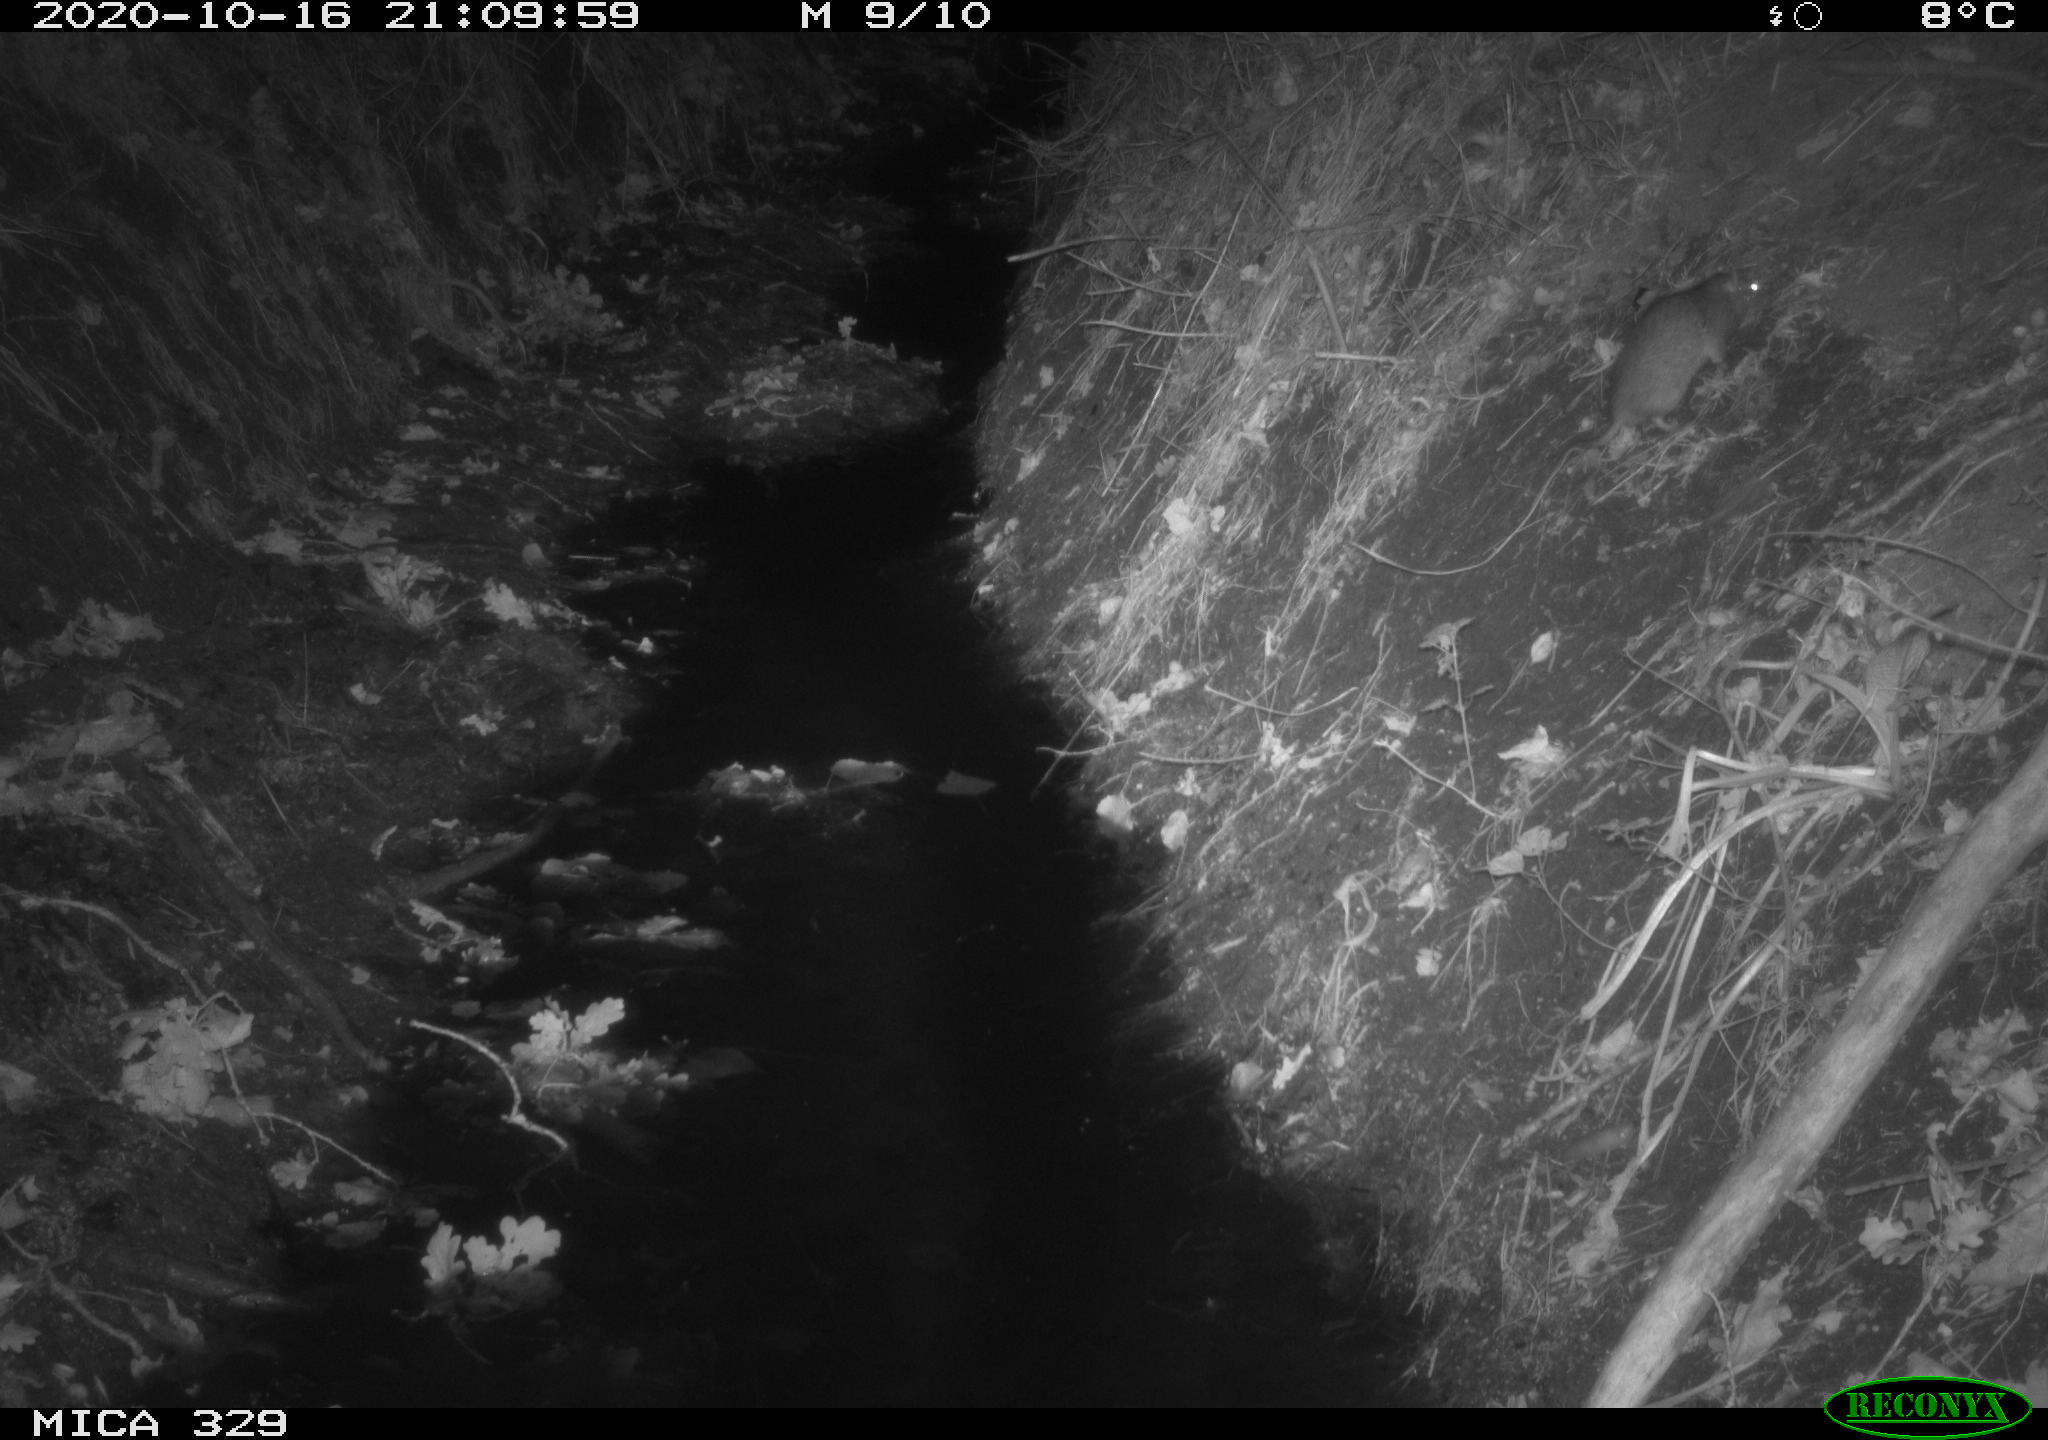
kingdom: Animalia
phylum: Chordata
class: Mammalia
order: Rodentia
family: Muridae
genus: Rattus
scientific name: Rattus norvegicus
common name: Brown rat
